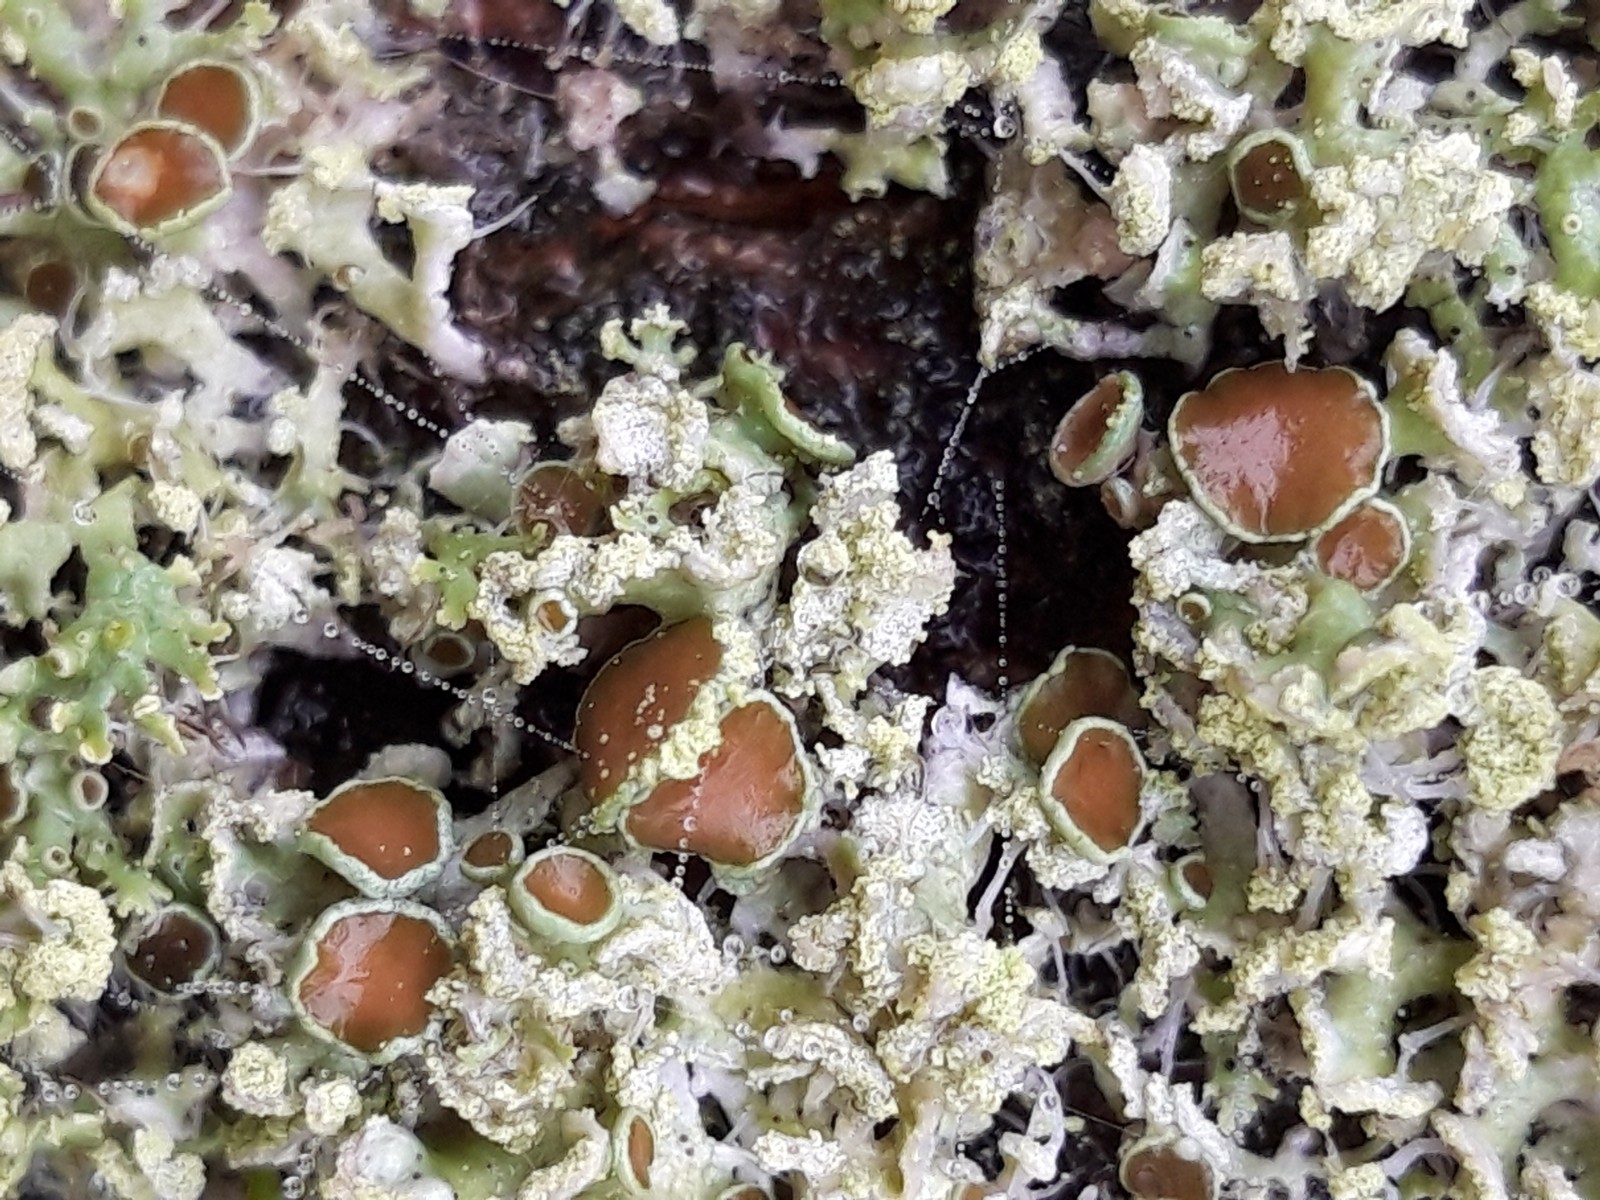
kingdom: Fungi
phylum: Ascomycota
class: Lecanoromycetes
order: Caliciales
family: Physciaceae
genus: Physcia
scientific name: Physcia tenella
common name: spæd rosetlav
